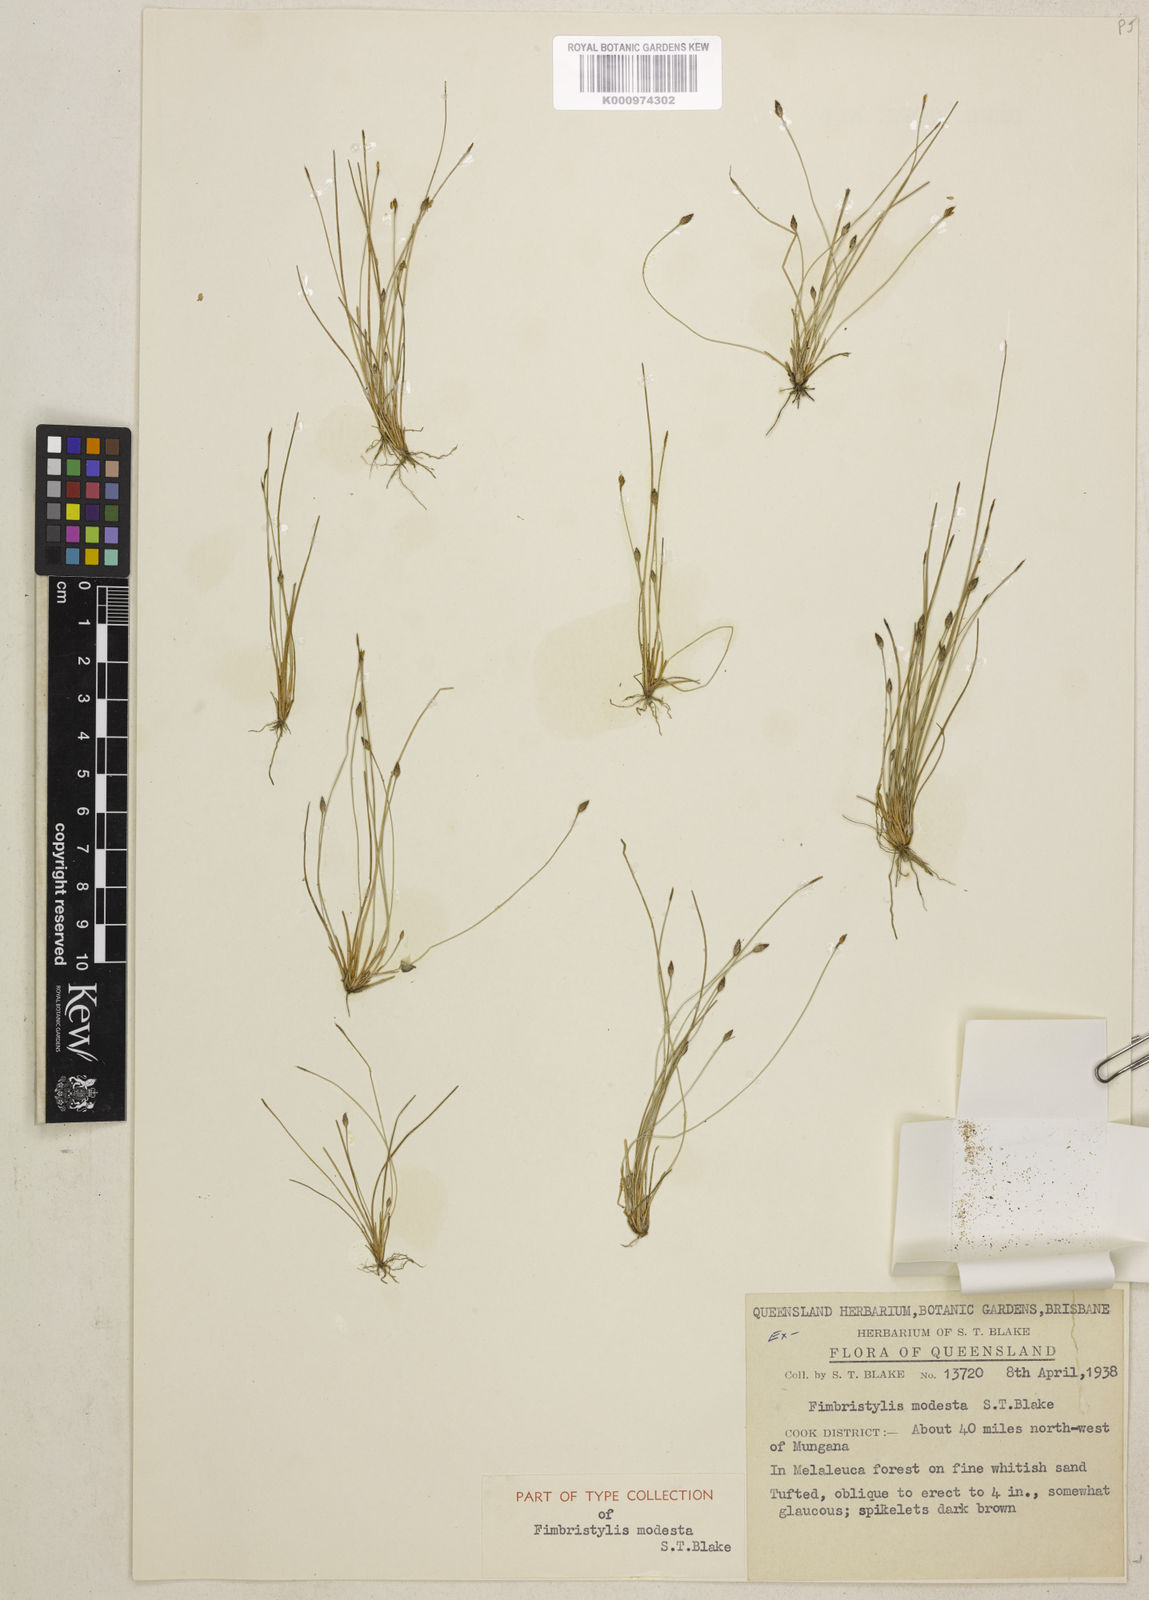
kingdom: Plantae
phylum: Tracheophyta
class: Liliopsida
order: Poales
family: Cyperaceae
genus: Fimbristylis
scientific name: Fimbristylis modesta
